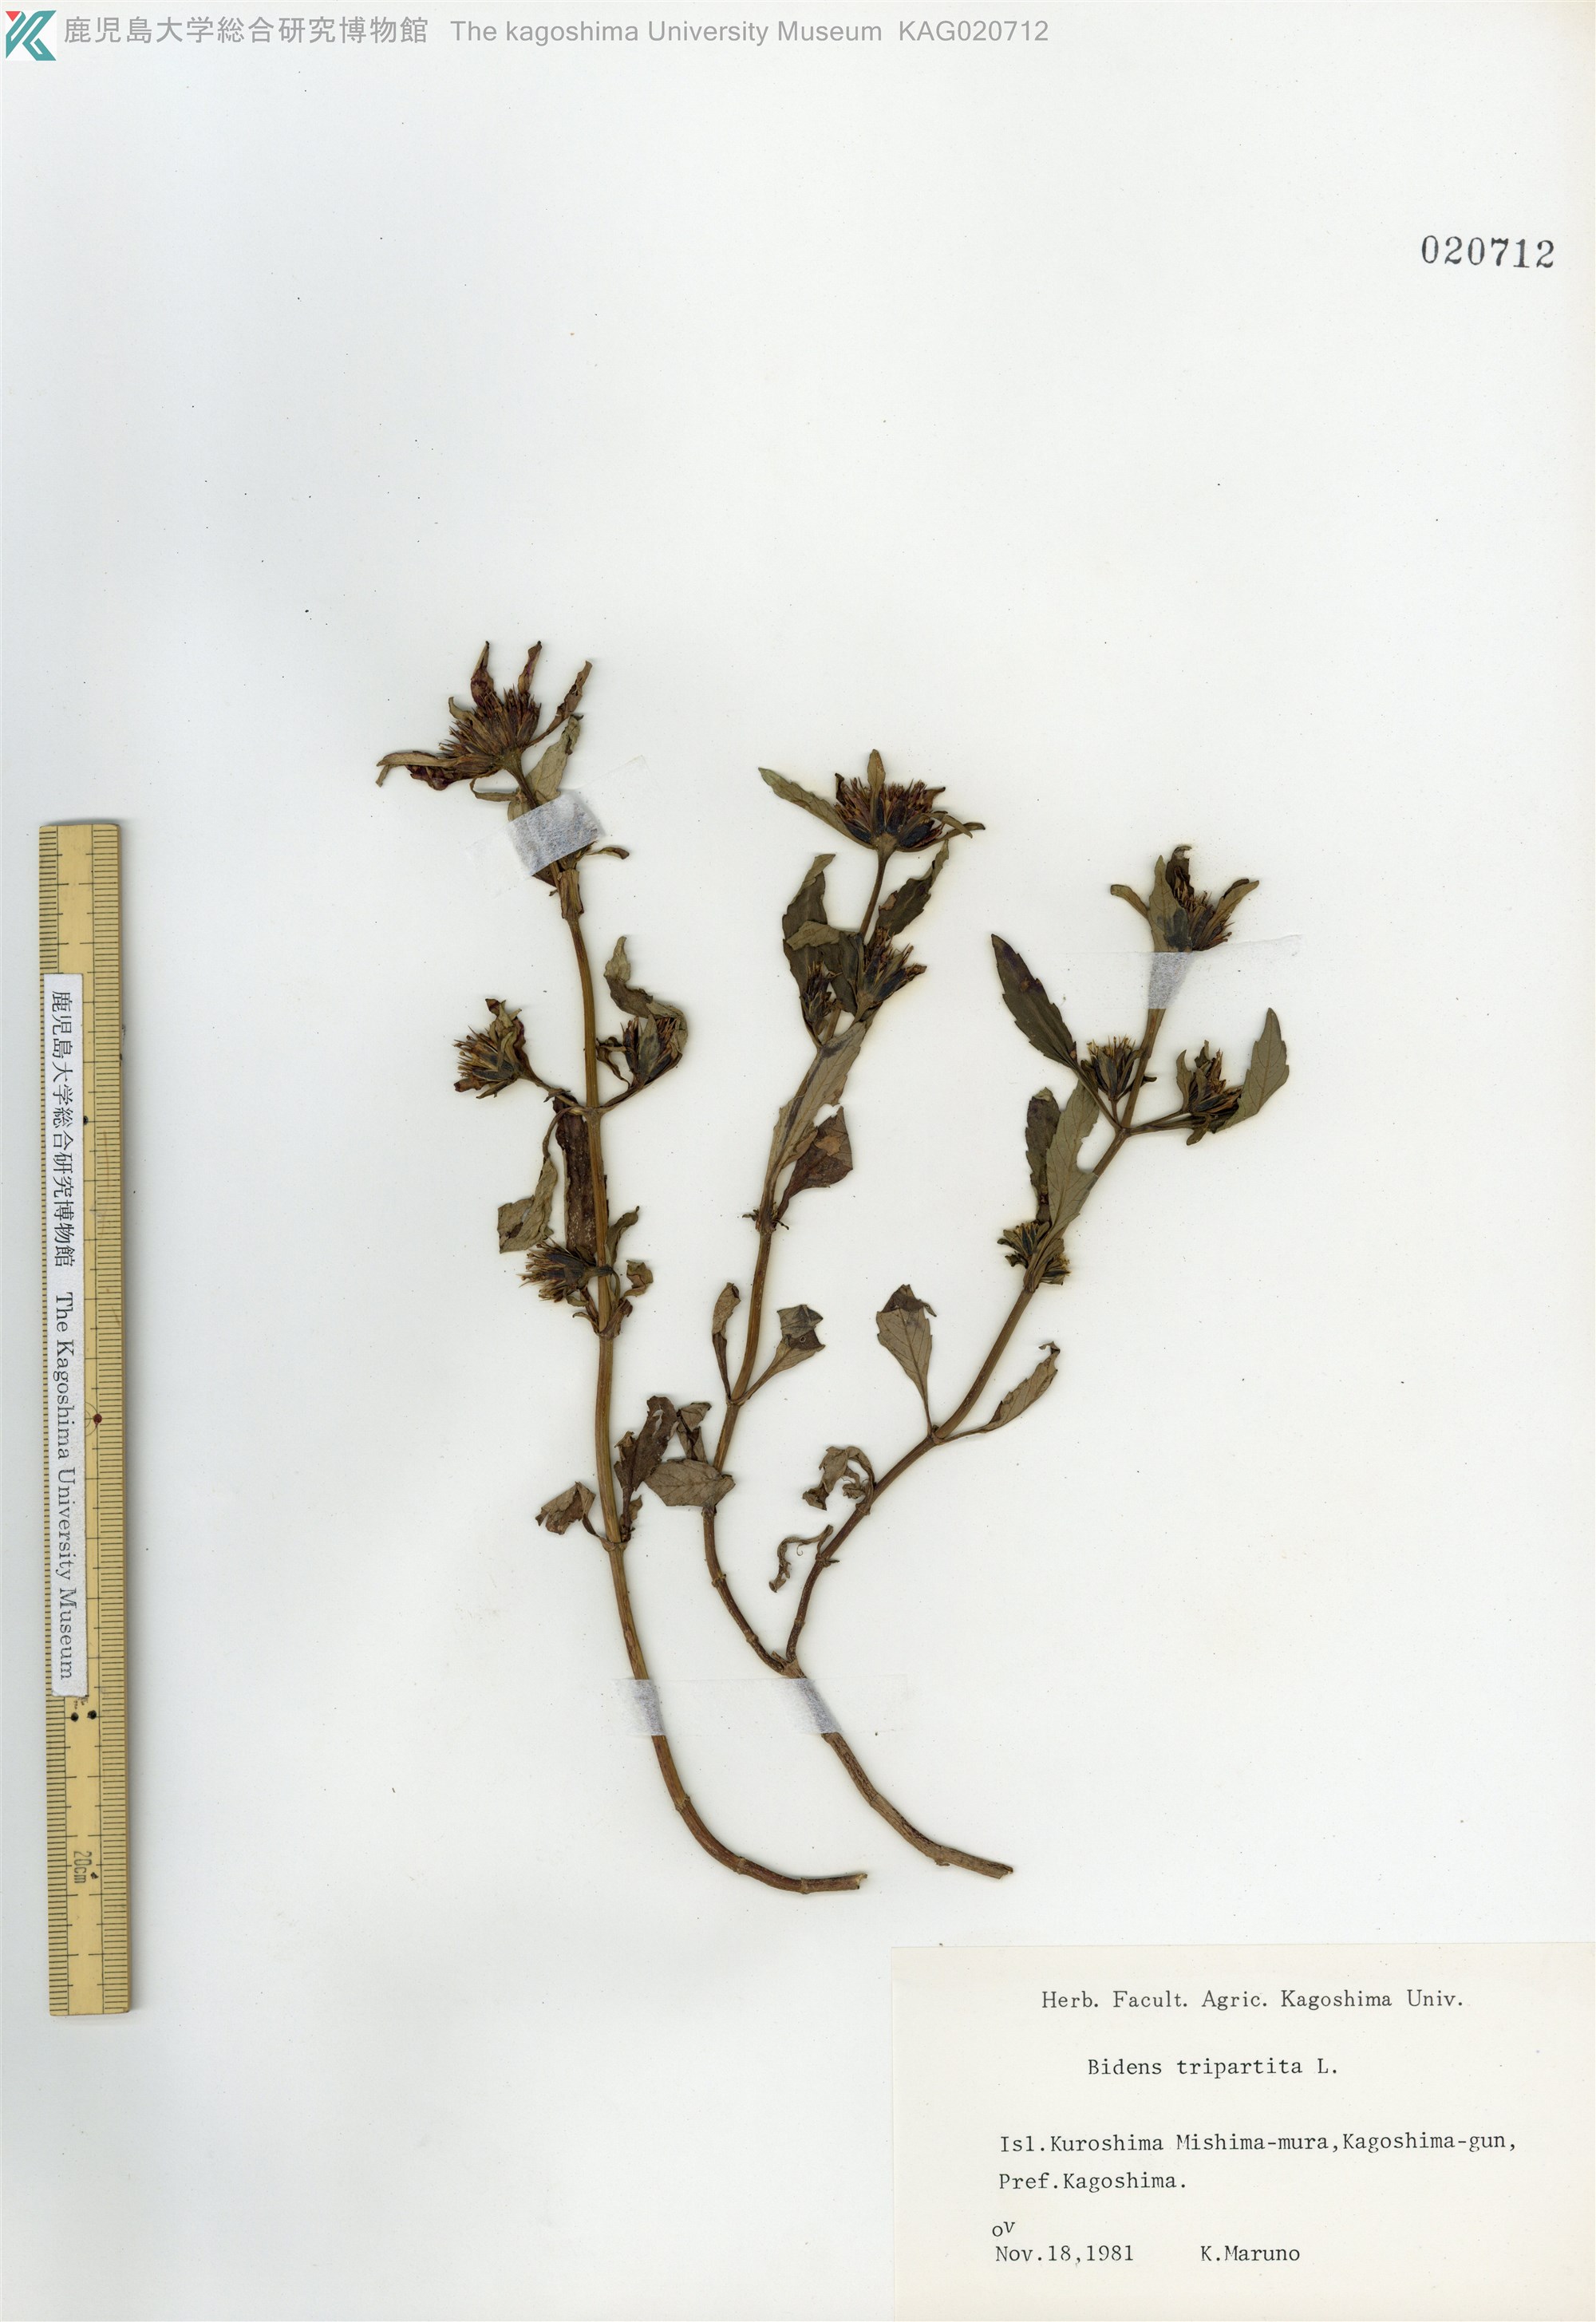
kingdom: Plantae
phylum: Tracheophyta
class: Magnoliopsida
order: Asterales
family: Asteraceae
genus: Bidens
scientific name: Bidens tripartita
